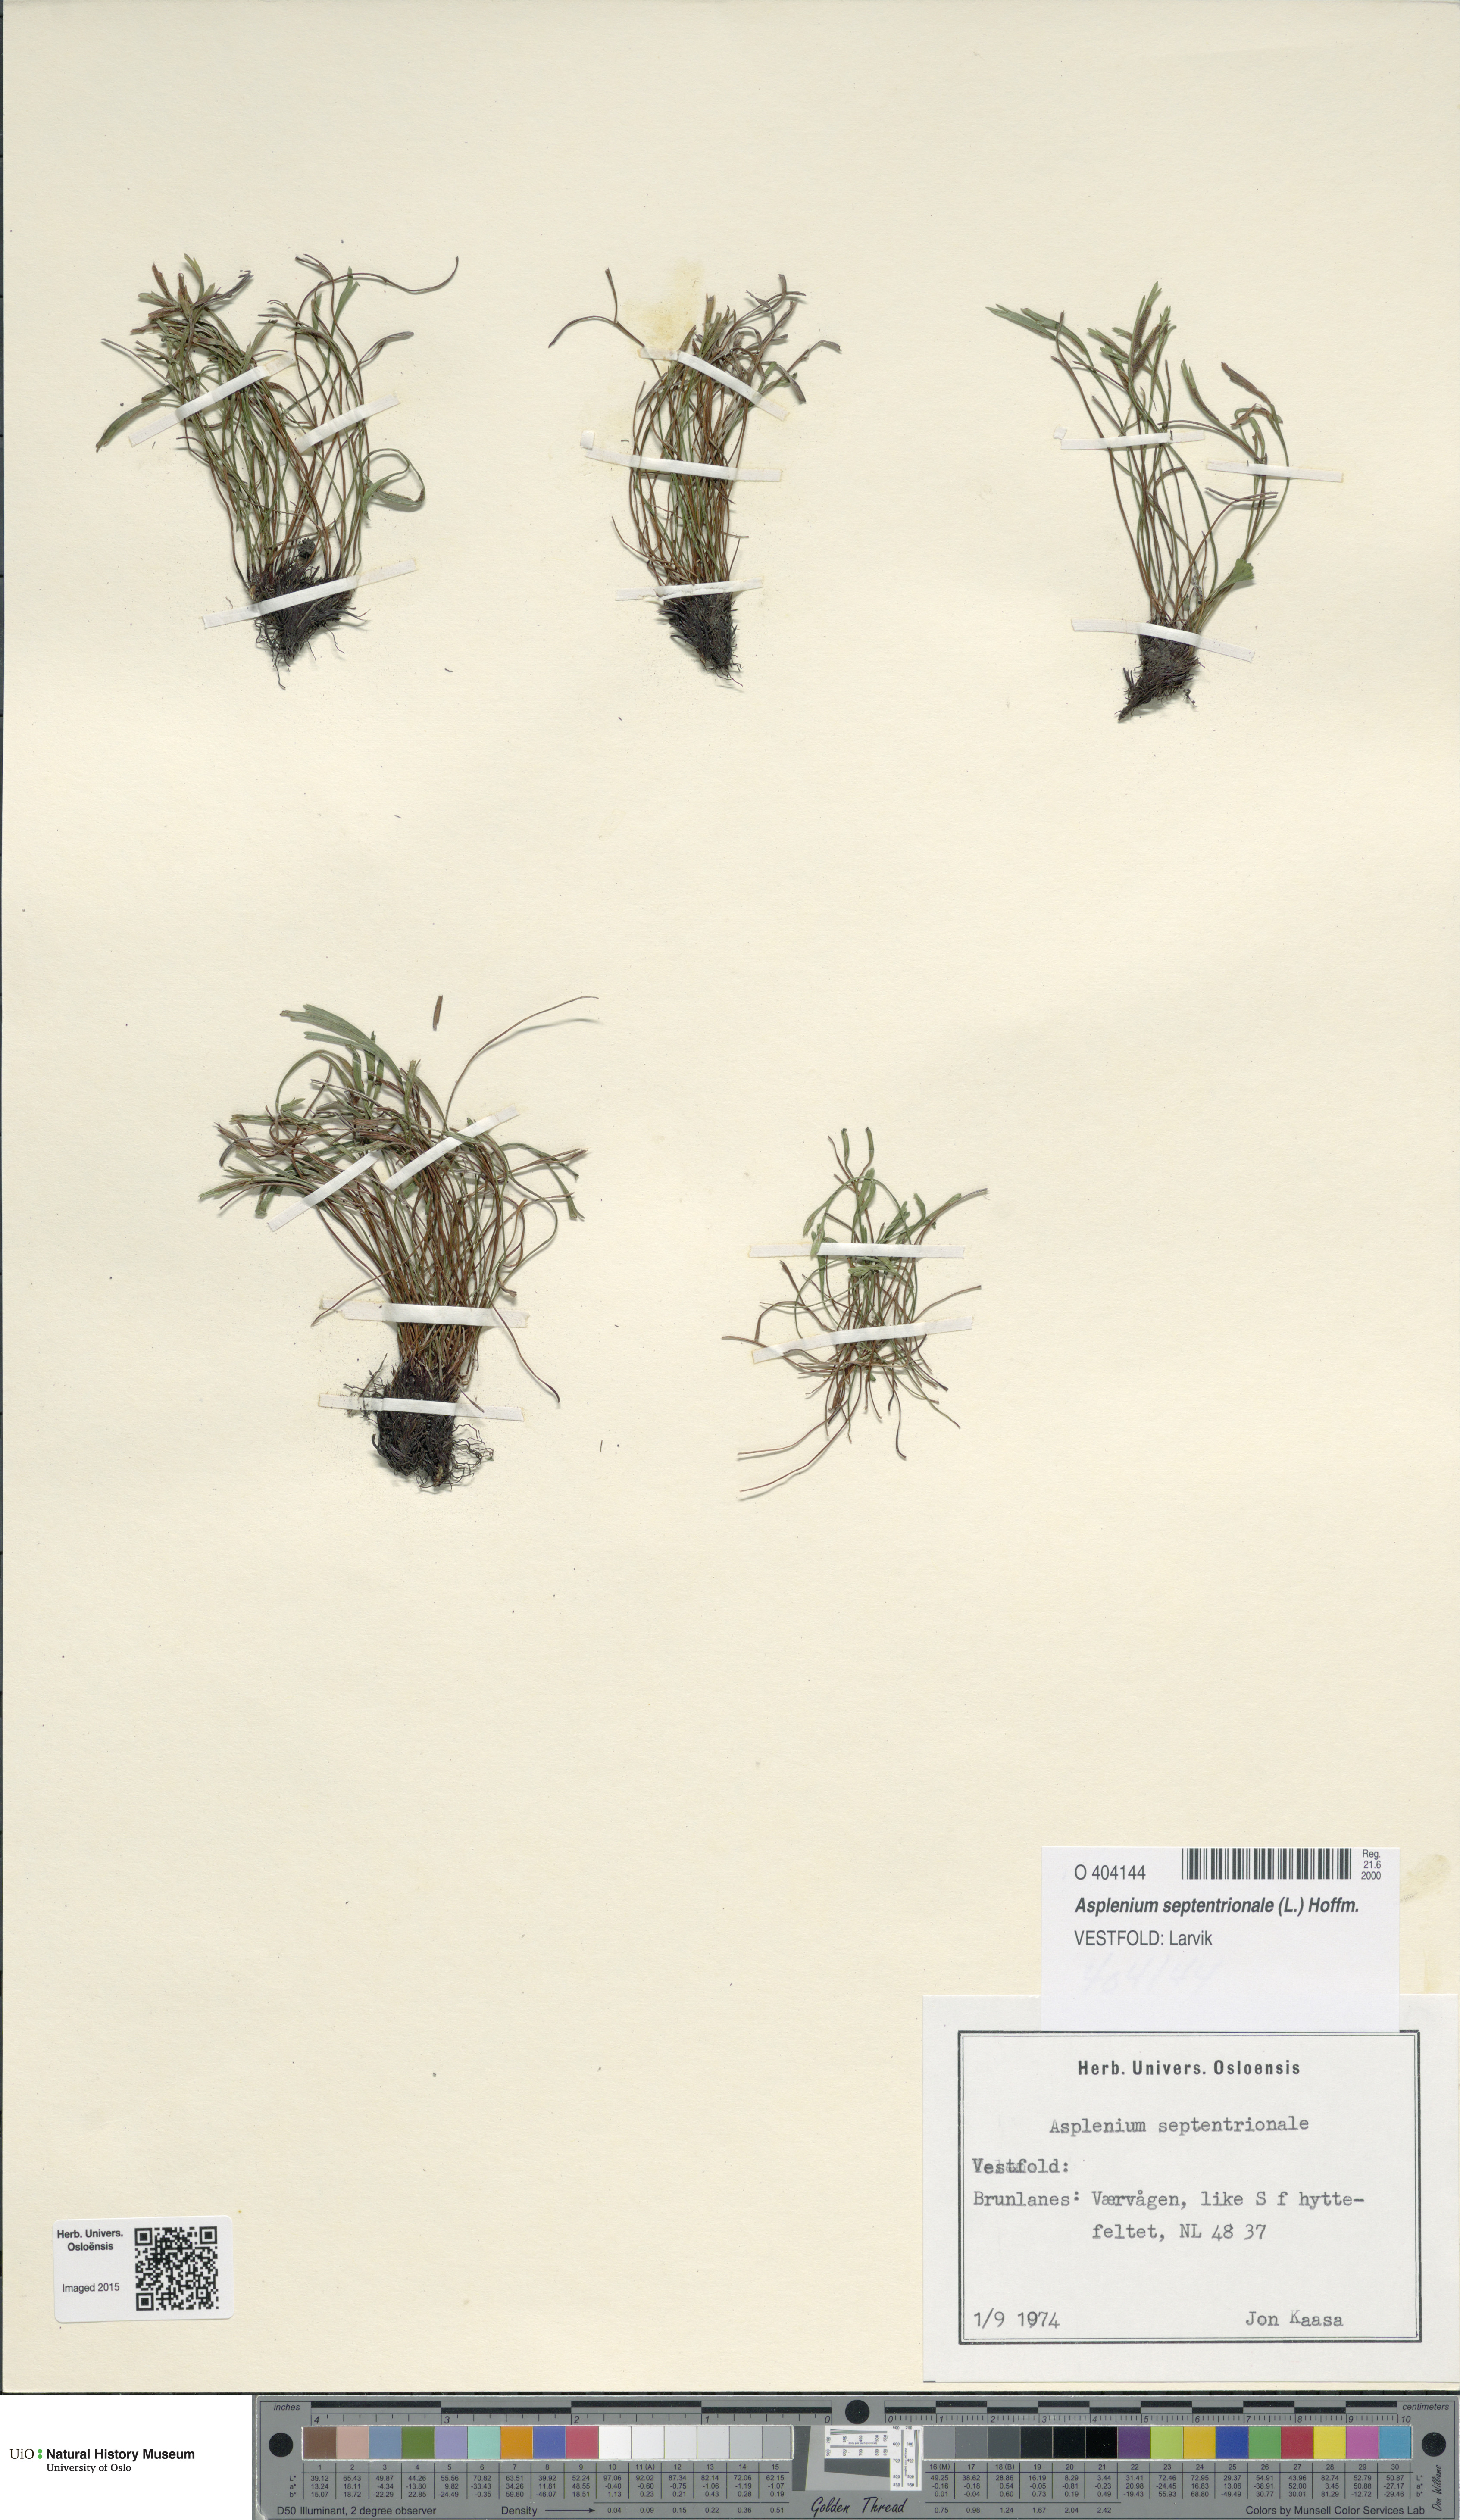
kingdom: Plantae
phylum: Tracheophyta
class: Polypodiopsida
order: Polypodiales
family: Aspleniaceae
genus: Asplenium
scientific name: Asplenium septentrionale
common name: Forked spleenwort
